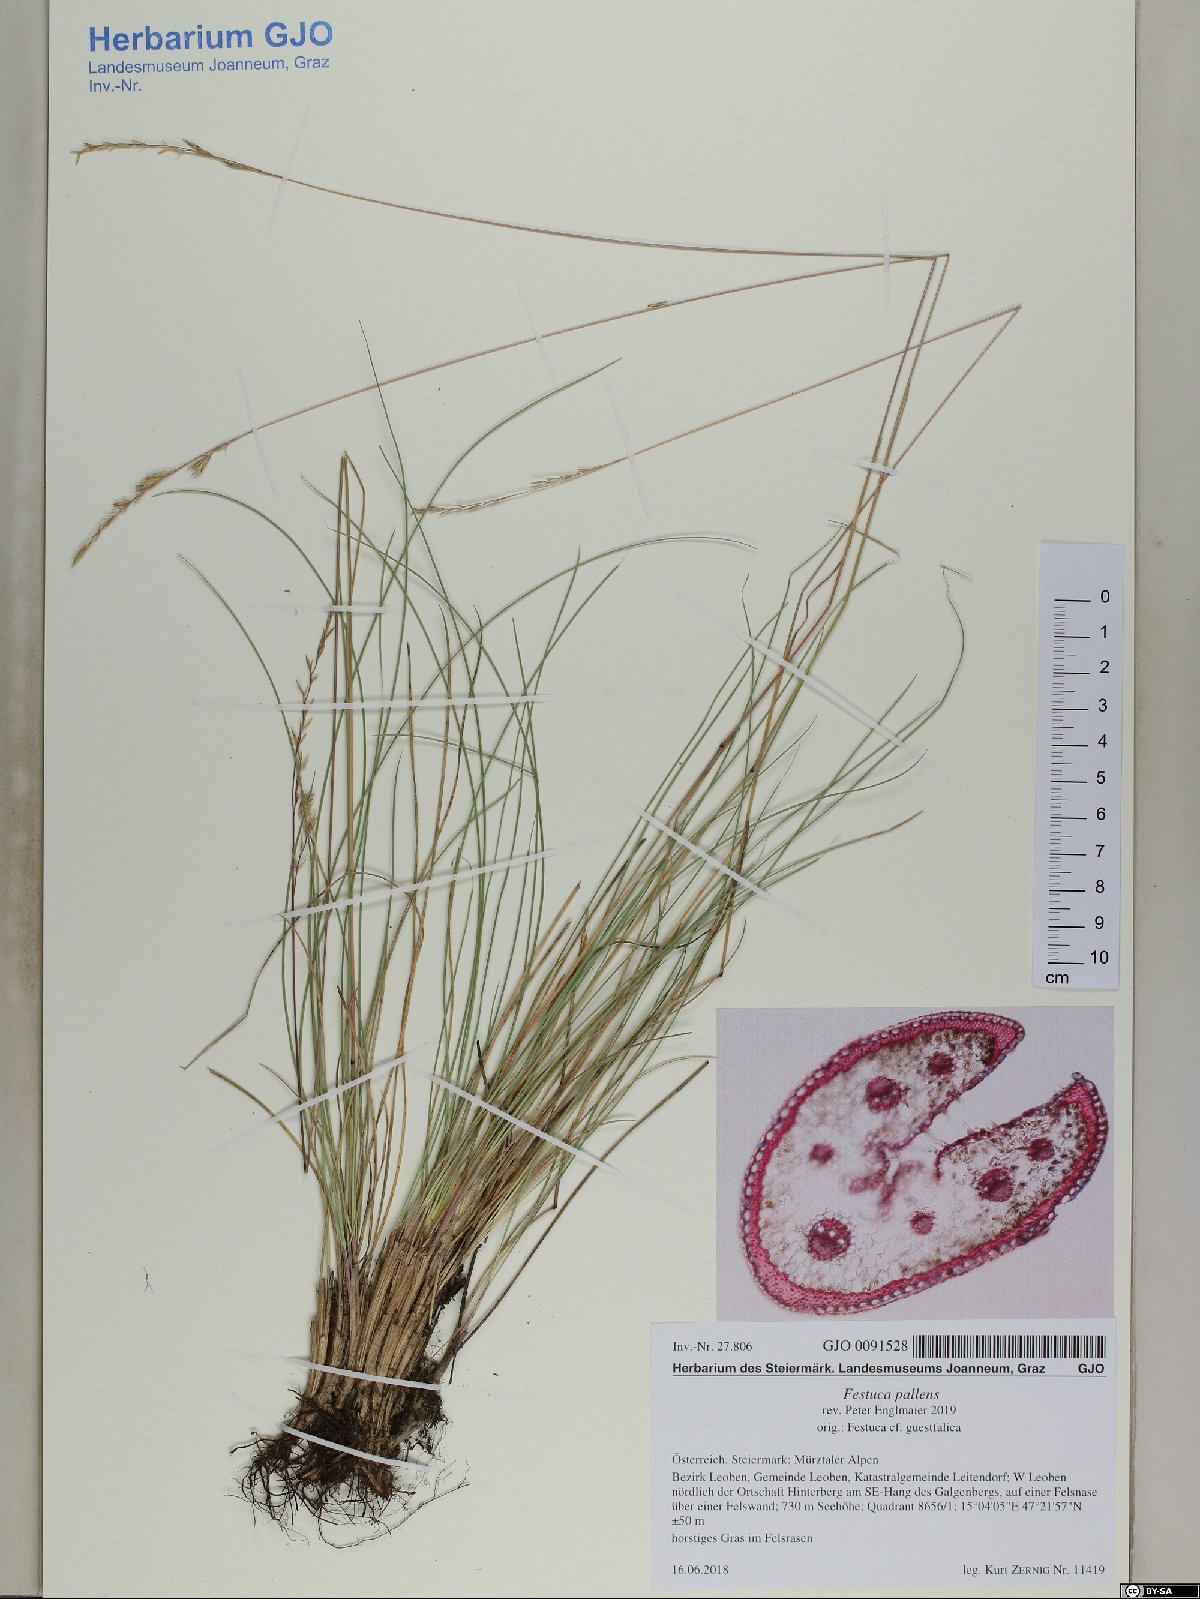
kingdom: Plantae
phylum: Tracheophyta
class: Liliopsida
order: Poales
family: Poaceae
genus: Festuca
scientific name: Festuca pallens
